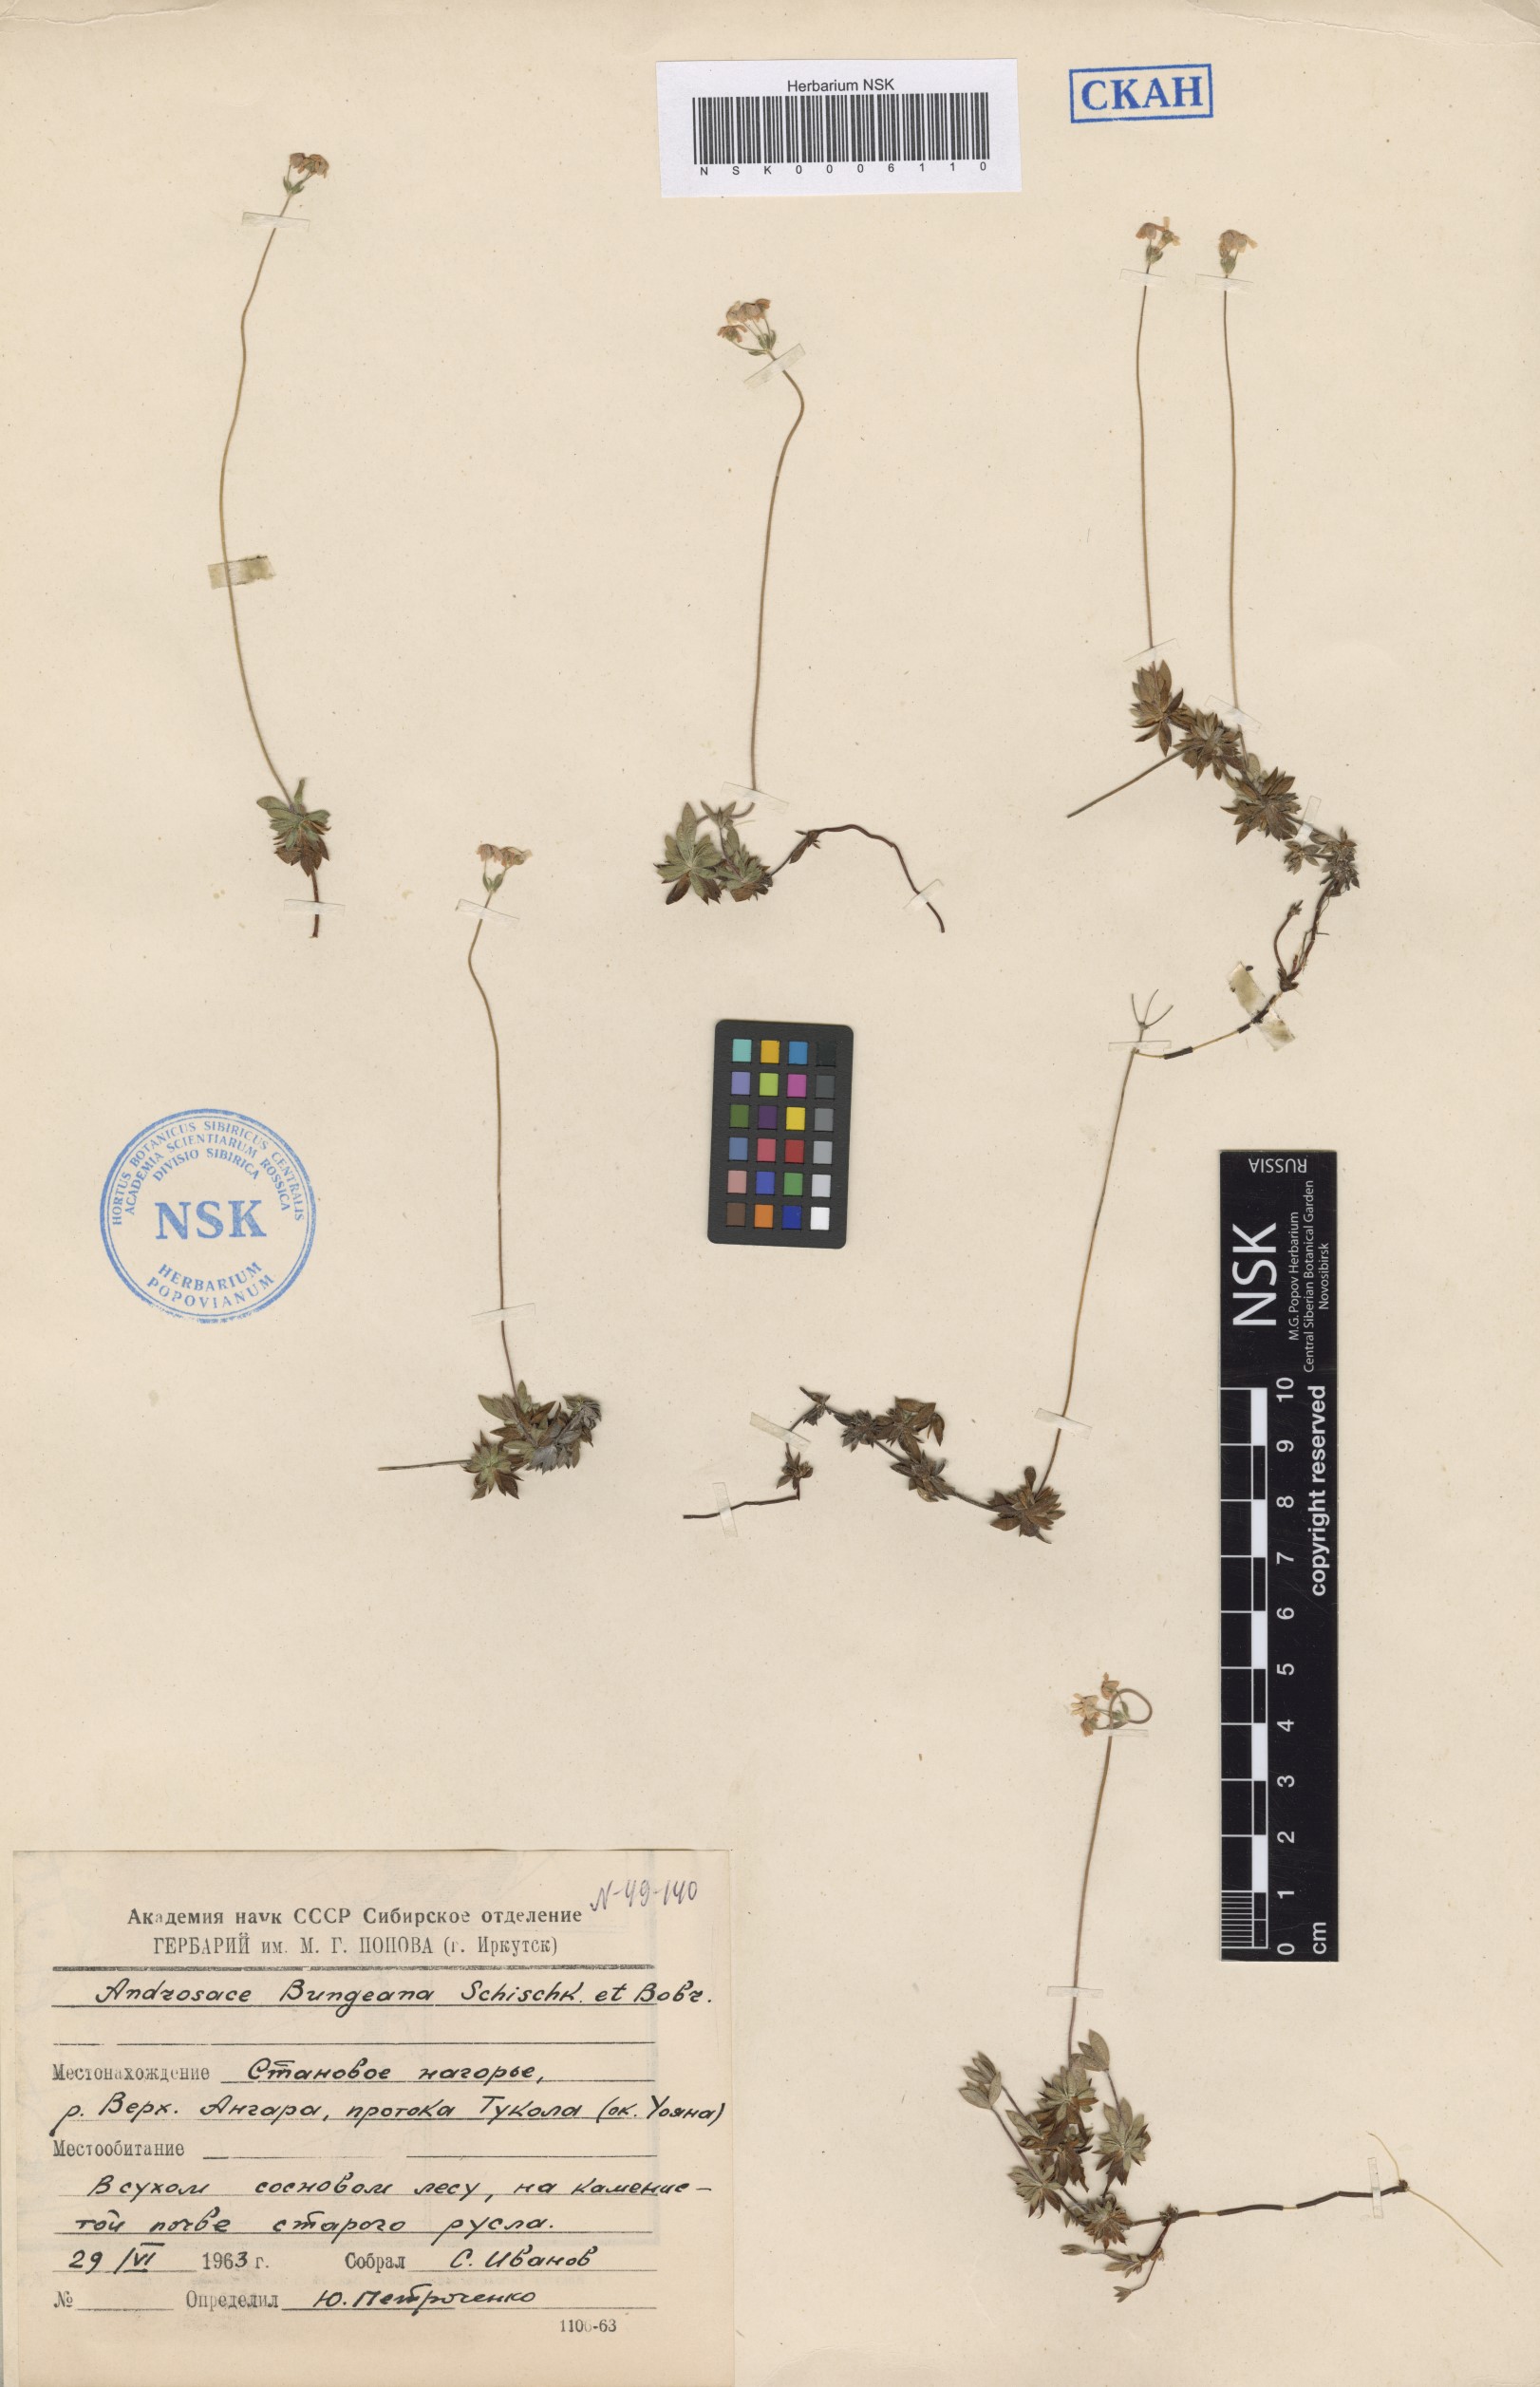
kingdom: Plantae
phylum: Tracheophyta
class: Magnoliopsida
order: Ericales
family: Primulaceae
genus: Androsace
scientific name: Androsace bungeana
